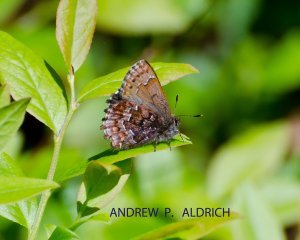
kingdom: Animalia
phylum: Arthropoda
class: Insecta
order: Lepidoptera
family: Lycaenidae
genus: Incisalia
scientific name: Incisalia niphon
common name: Eastern Pine Elfin
